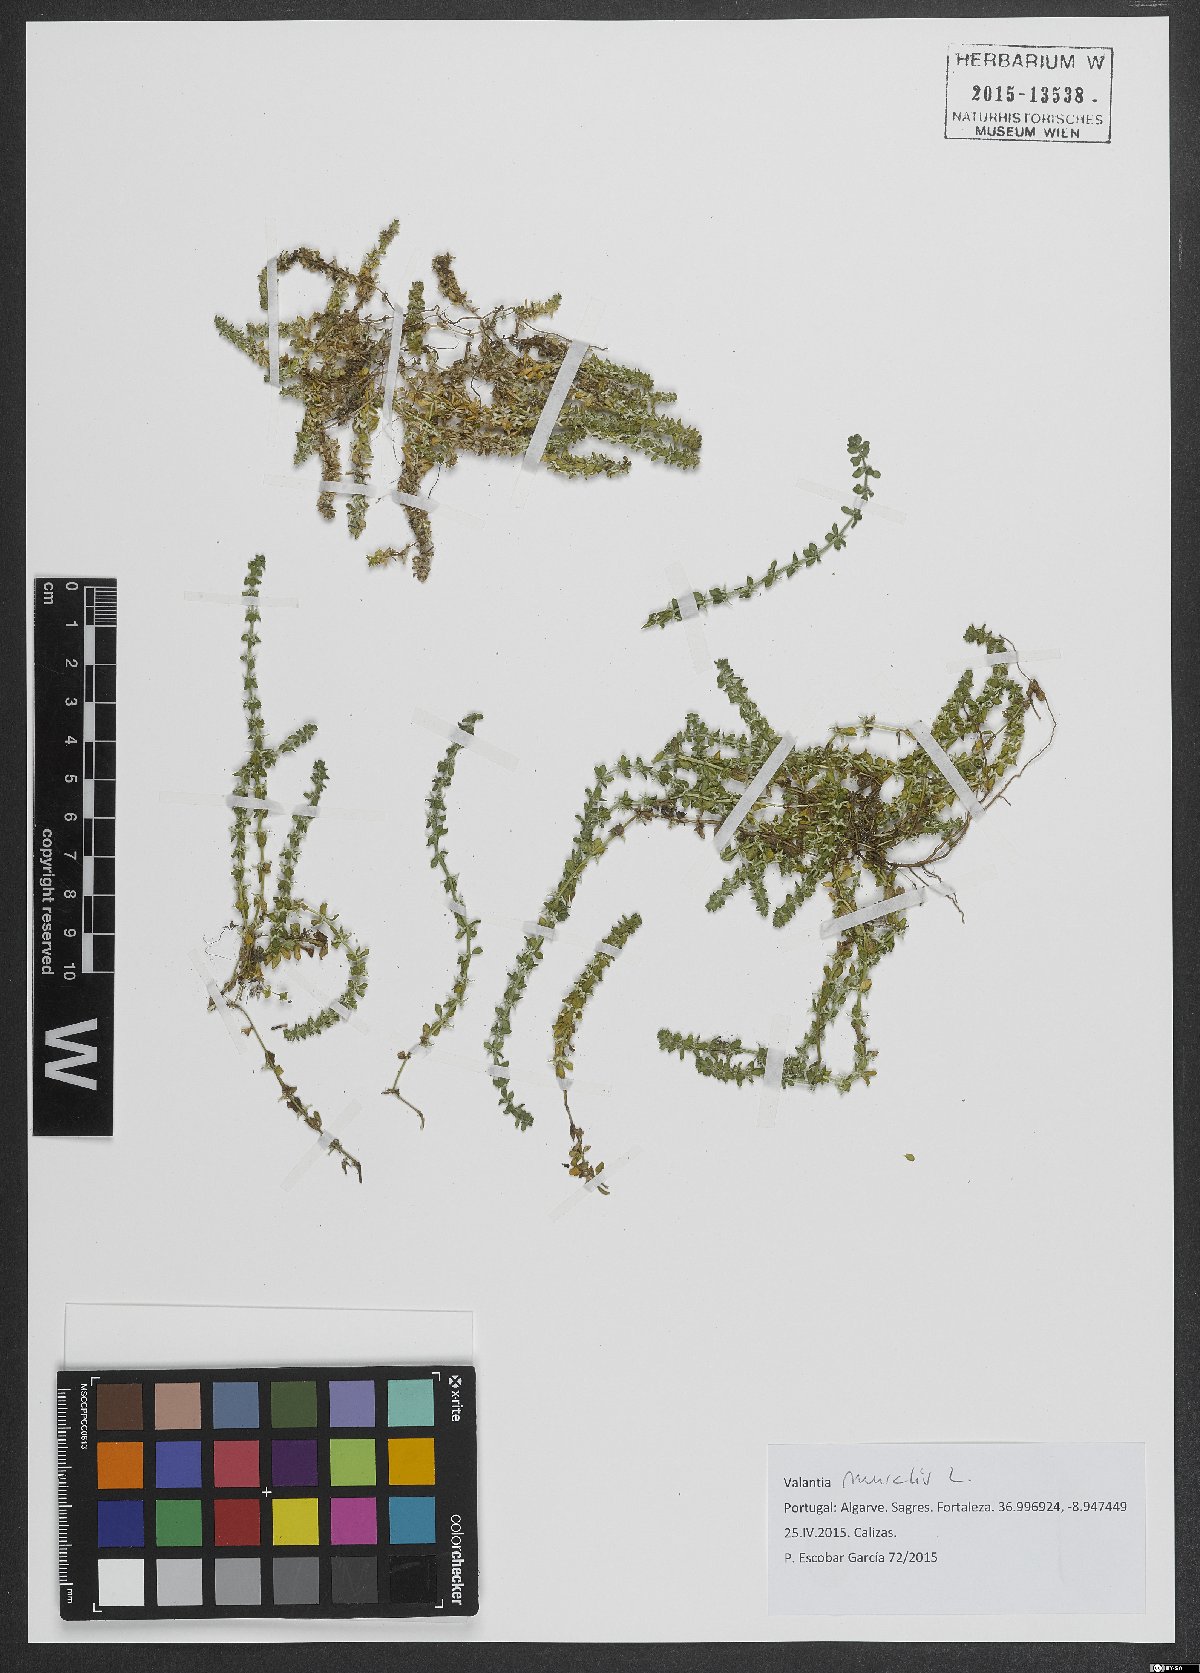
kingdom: Plantae
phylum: Tracheophyta
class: Magnoliopsida
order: Gentianales
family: Rubiaceae
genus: Valantia
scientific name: Valantia muralis
